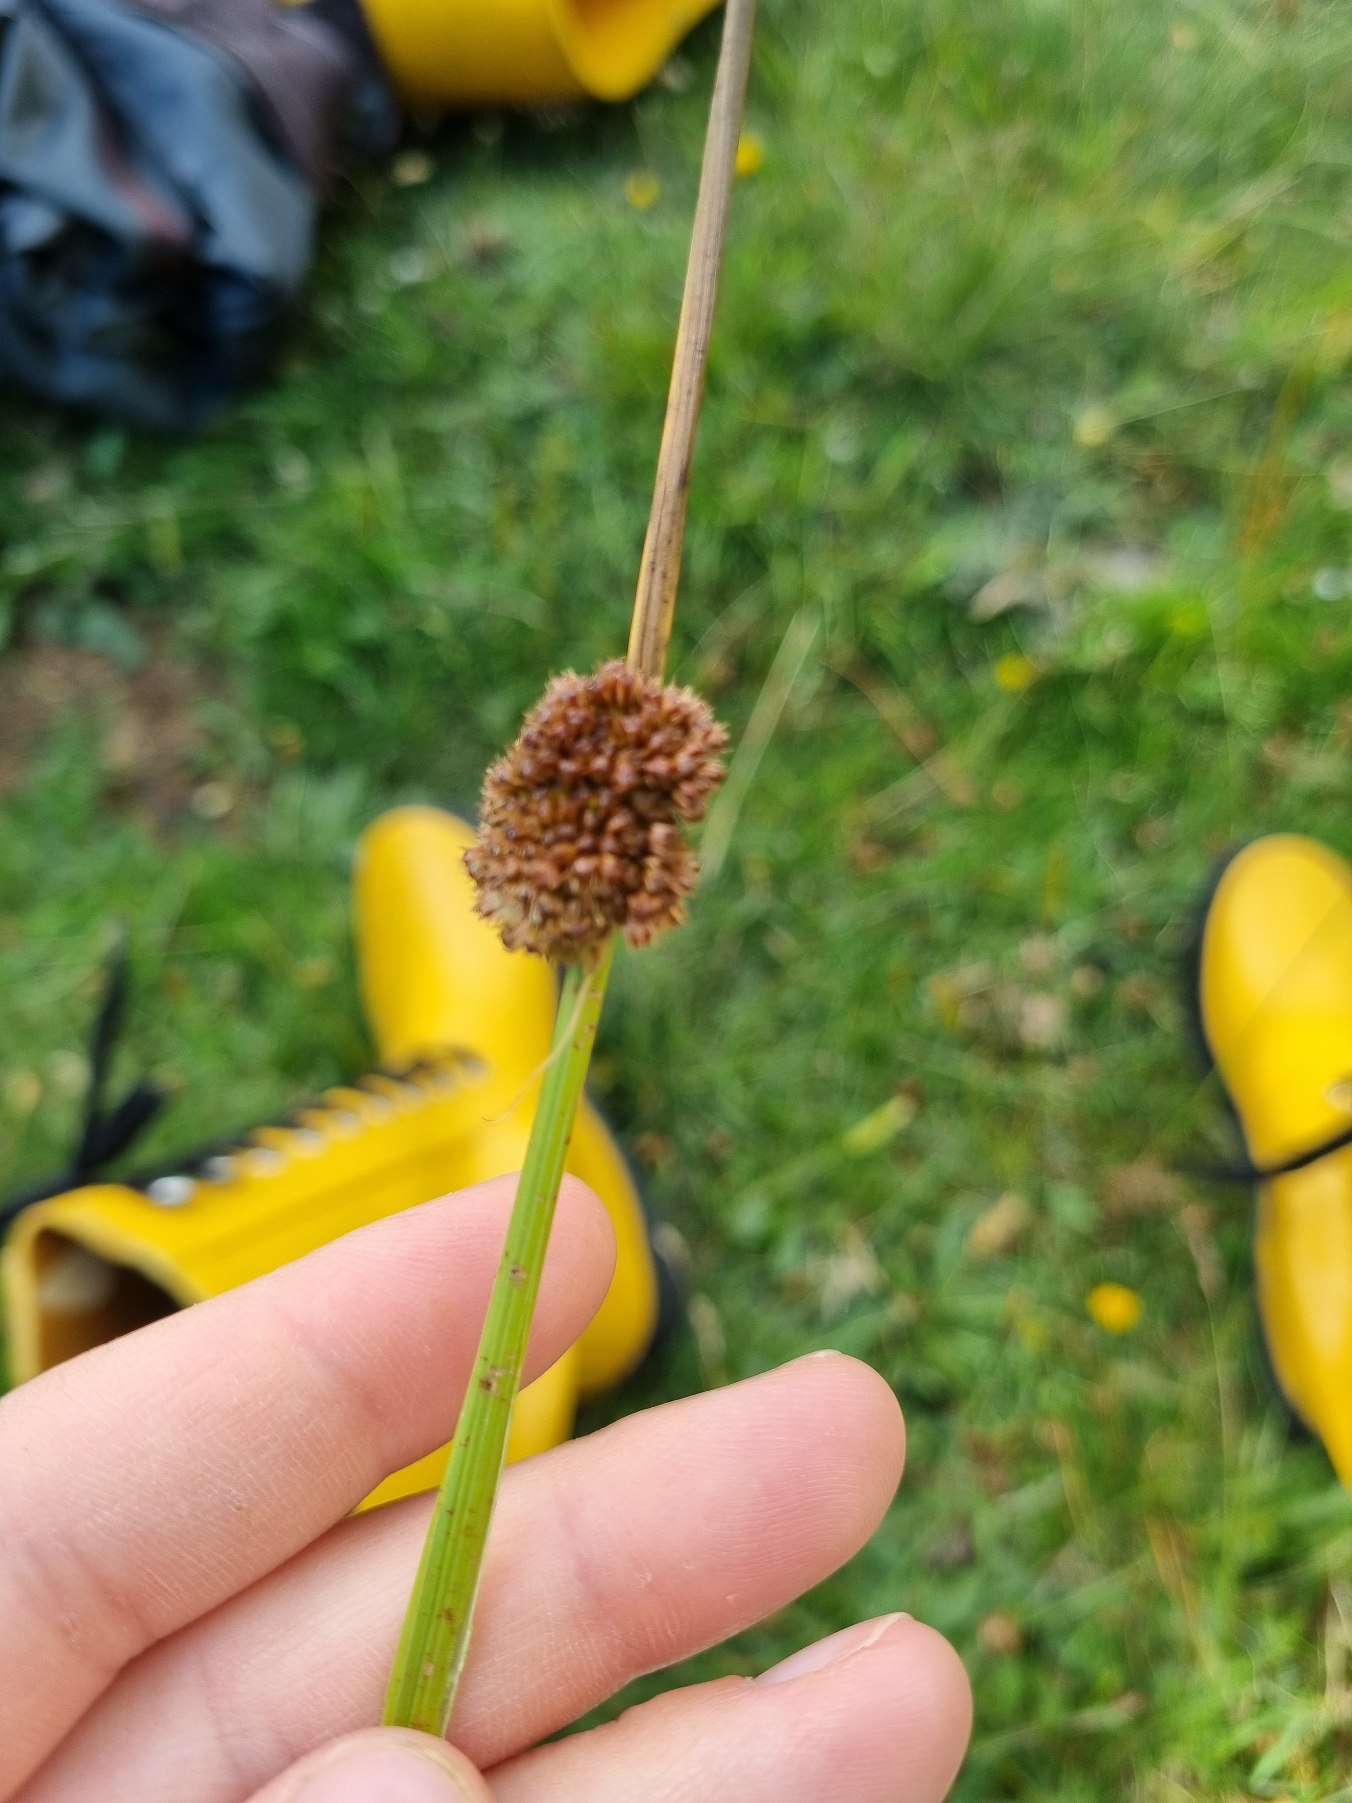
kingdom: Plantae
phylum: Tracheophyta
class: Liliopsida
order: Poales
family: Juncaceae
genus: Juncus
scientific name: Juncus conglomeratus
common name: Knop-siv
